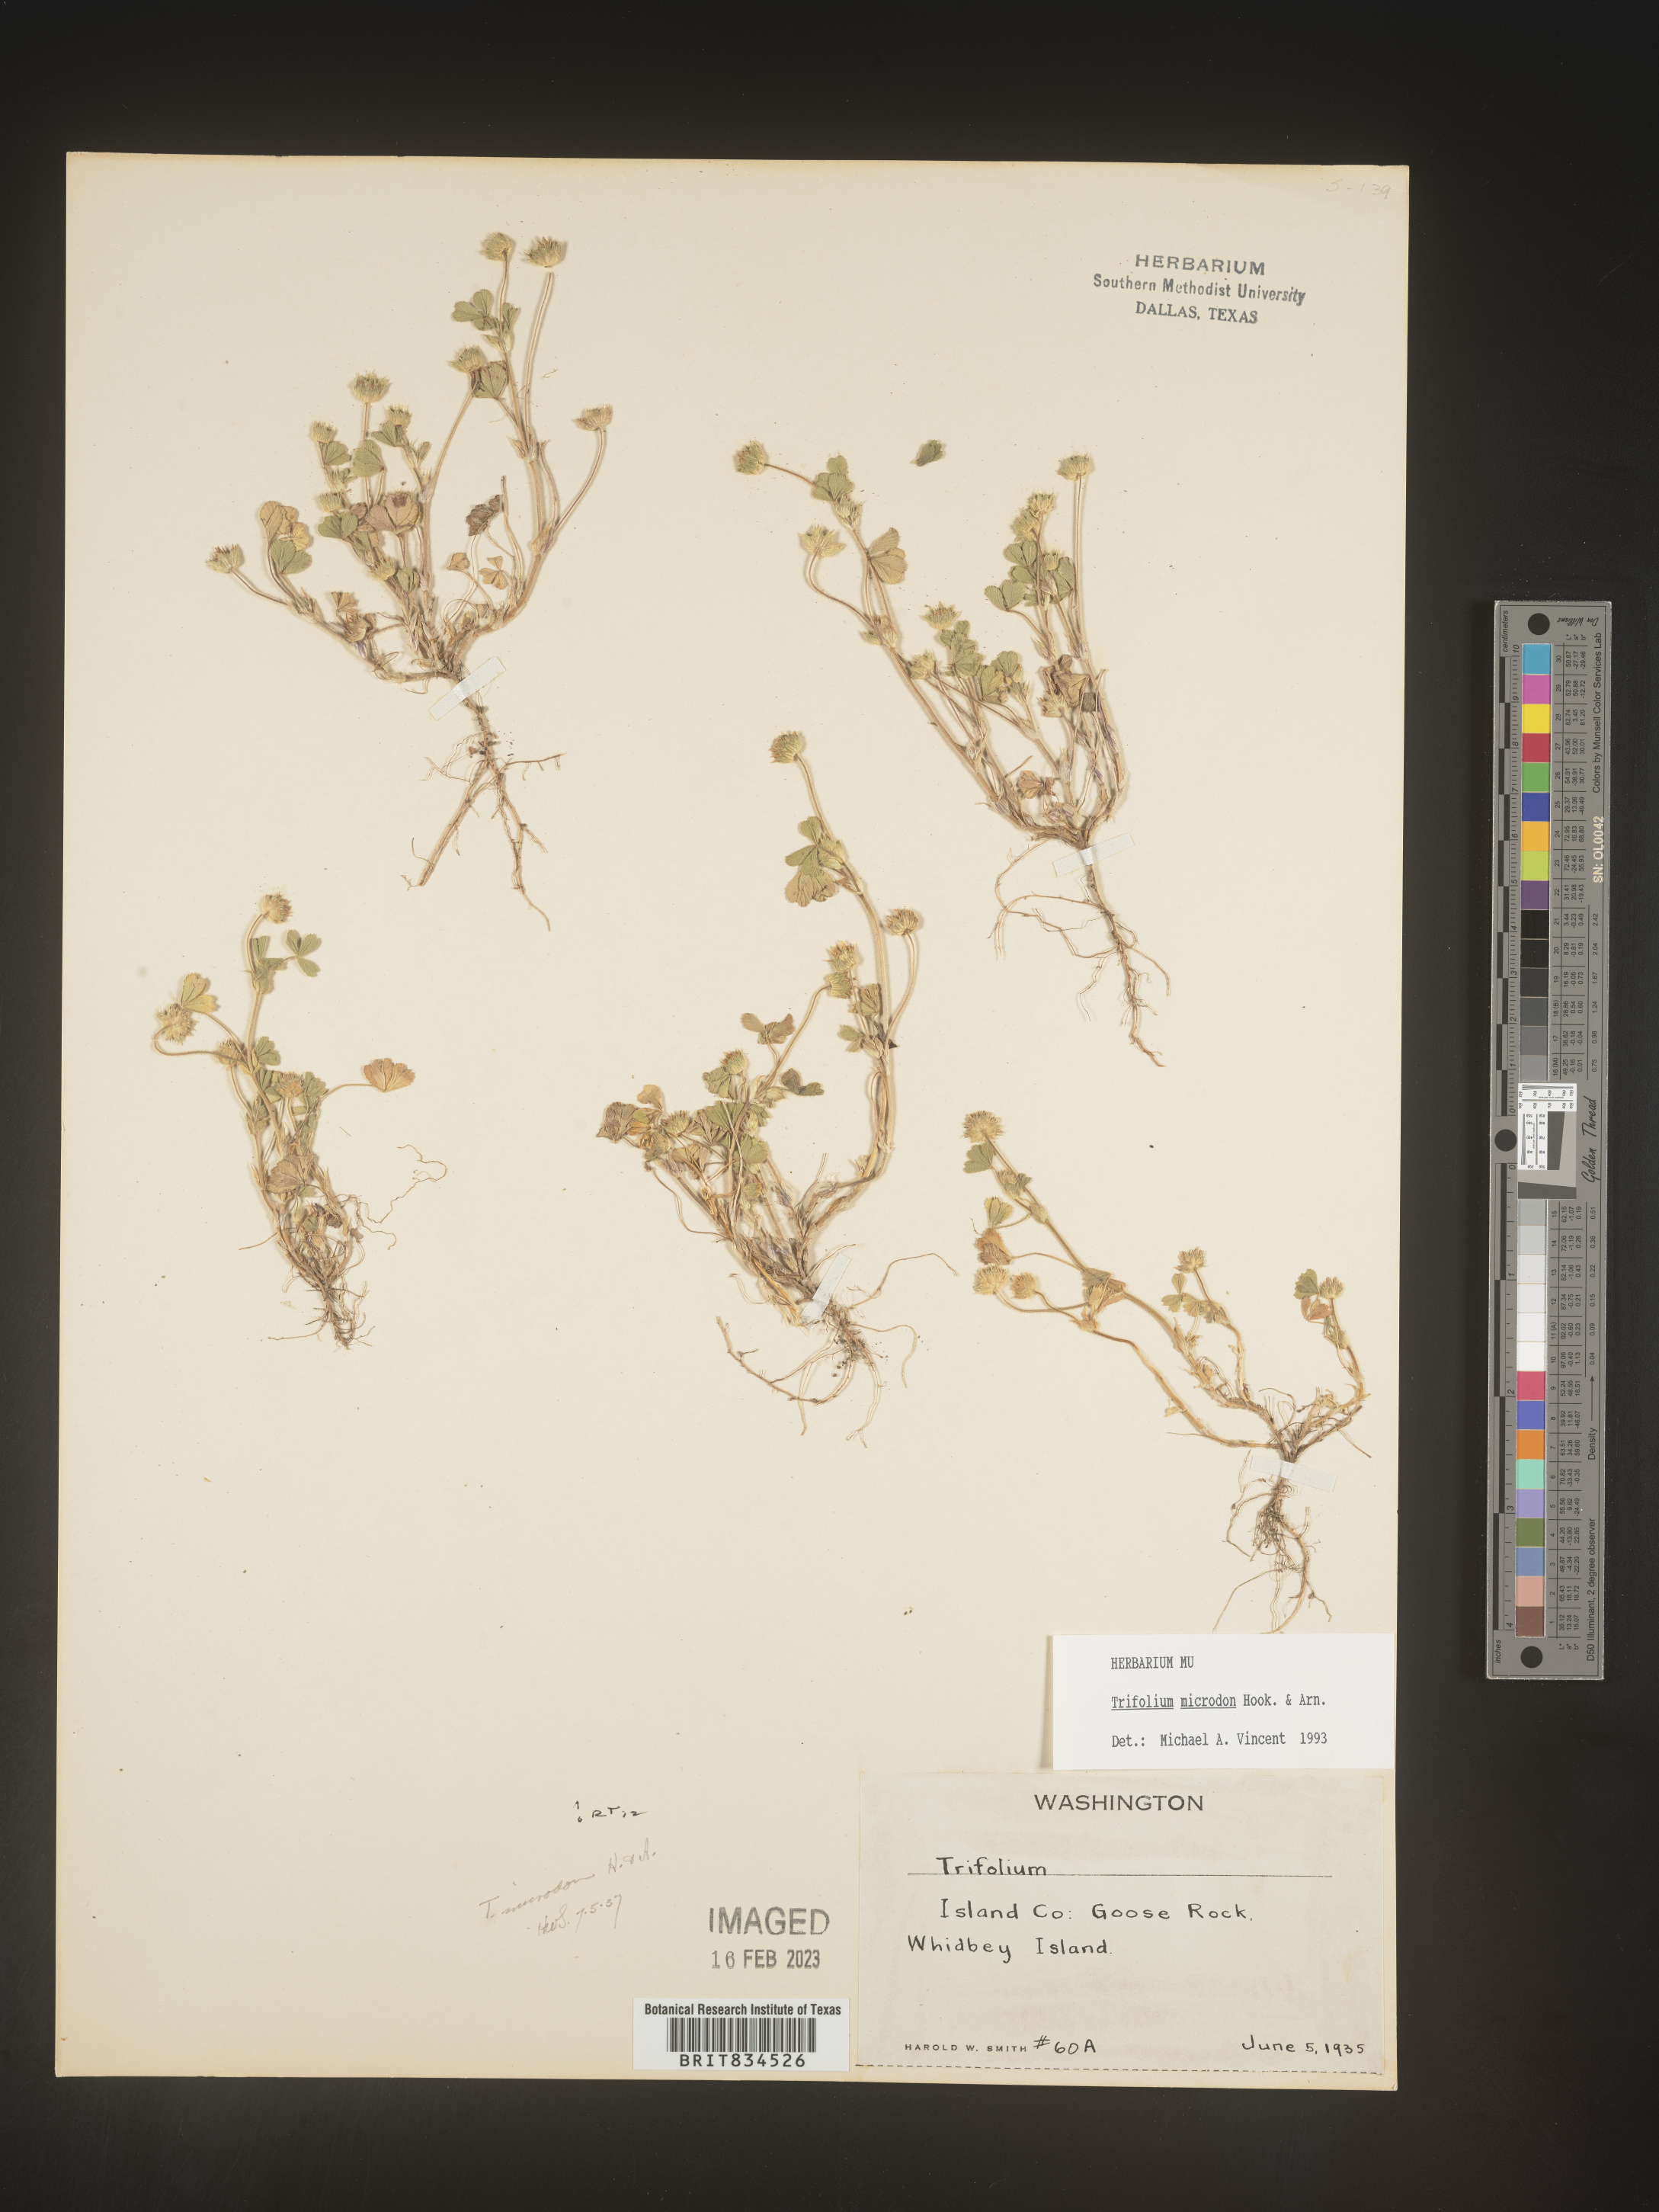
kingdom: Plantae
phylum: Tracheophyta
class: Magnoliopsida
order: Fabales
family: Fabaceae
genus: Trifolium
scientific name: Trifolium
